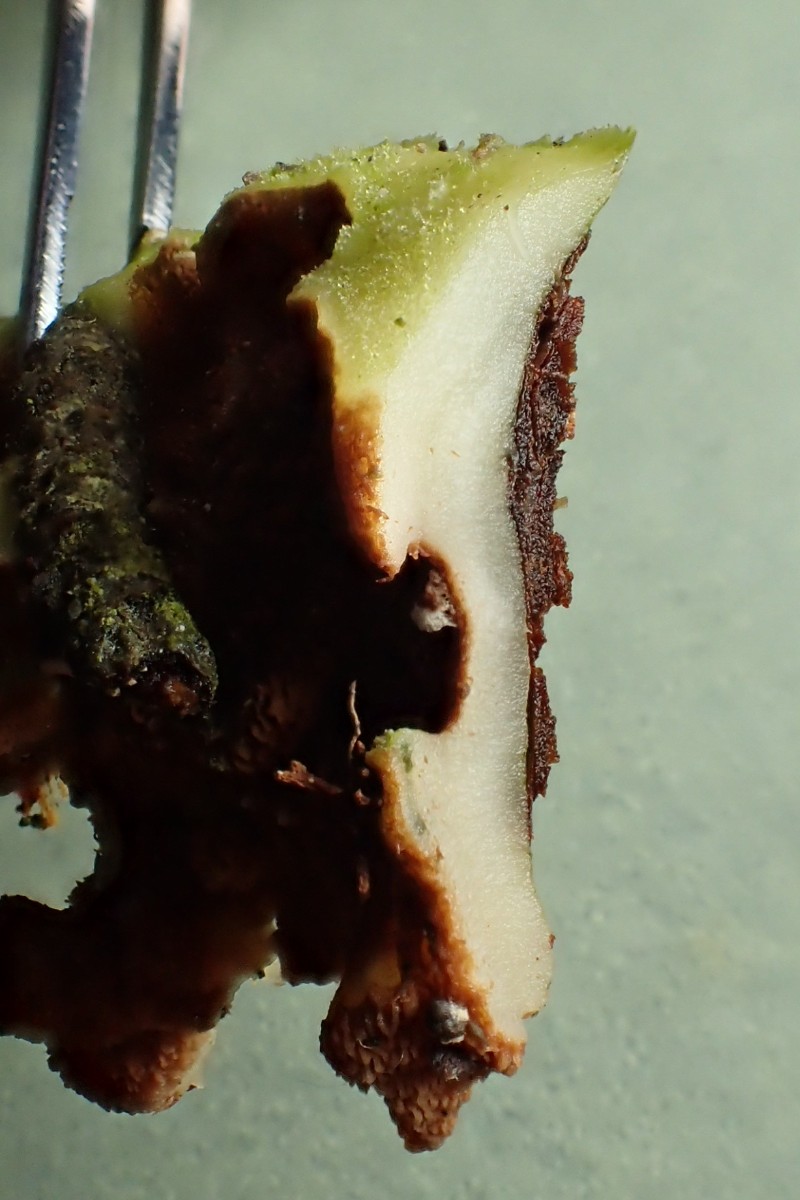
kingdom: Fungi
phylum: Basidiomycota
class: Agaricomycetes
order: Polyporales
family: Irpicaceae
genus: Meruliopsis
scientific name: Meruliopsis taxicola
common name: purpurbrun foldporesvamp
